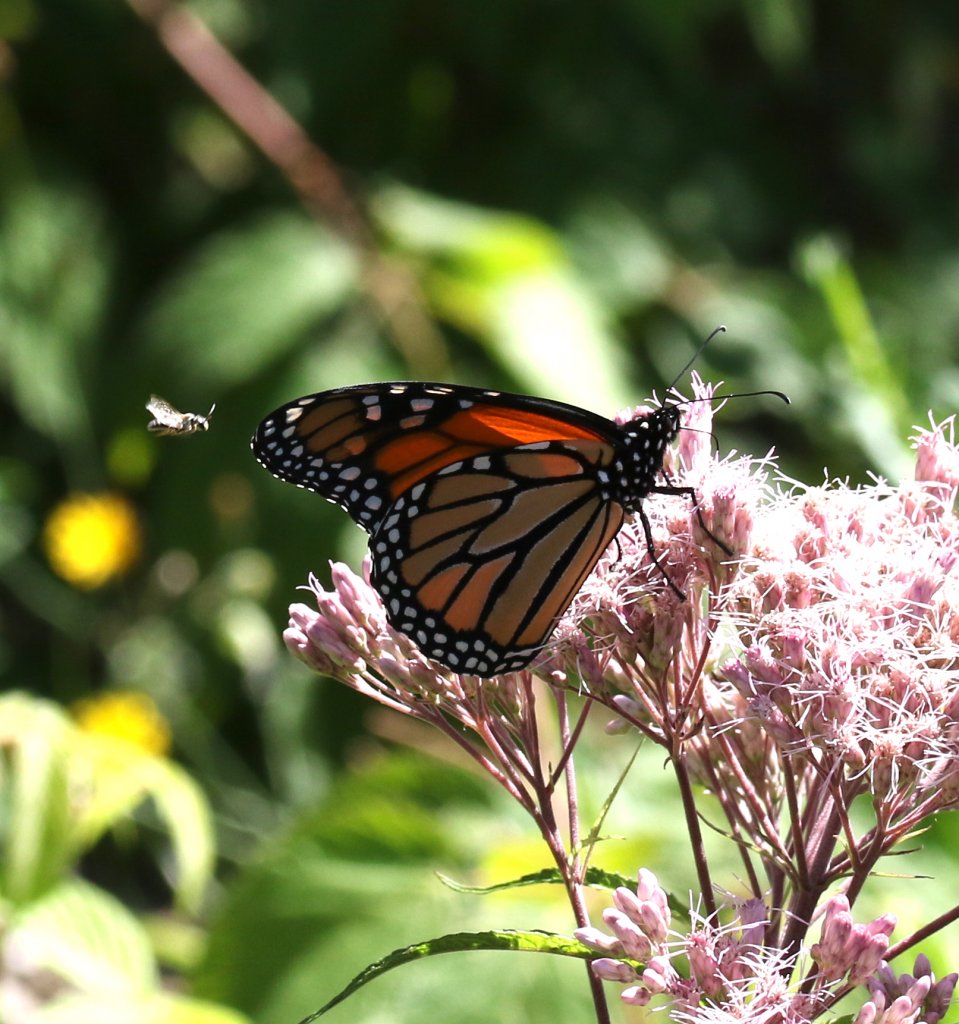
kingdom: Animalia
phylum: Arthropoda
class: Insecta
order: Lepidoptera
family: Nymphalidae
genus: Danaus
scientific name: Danaus plexippus
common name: Monarch
